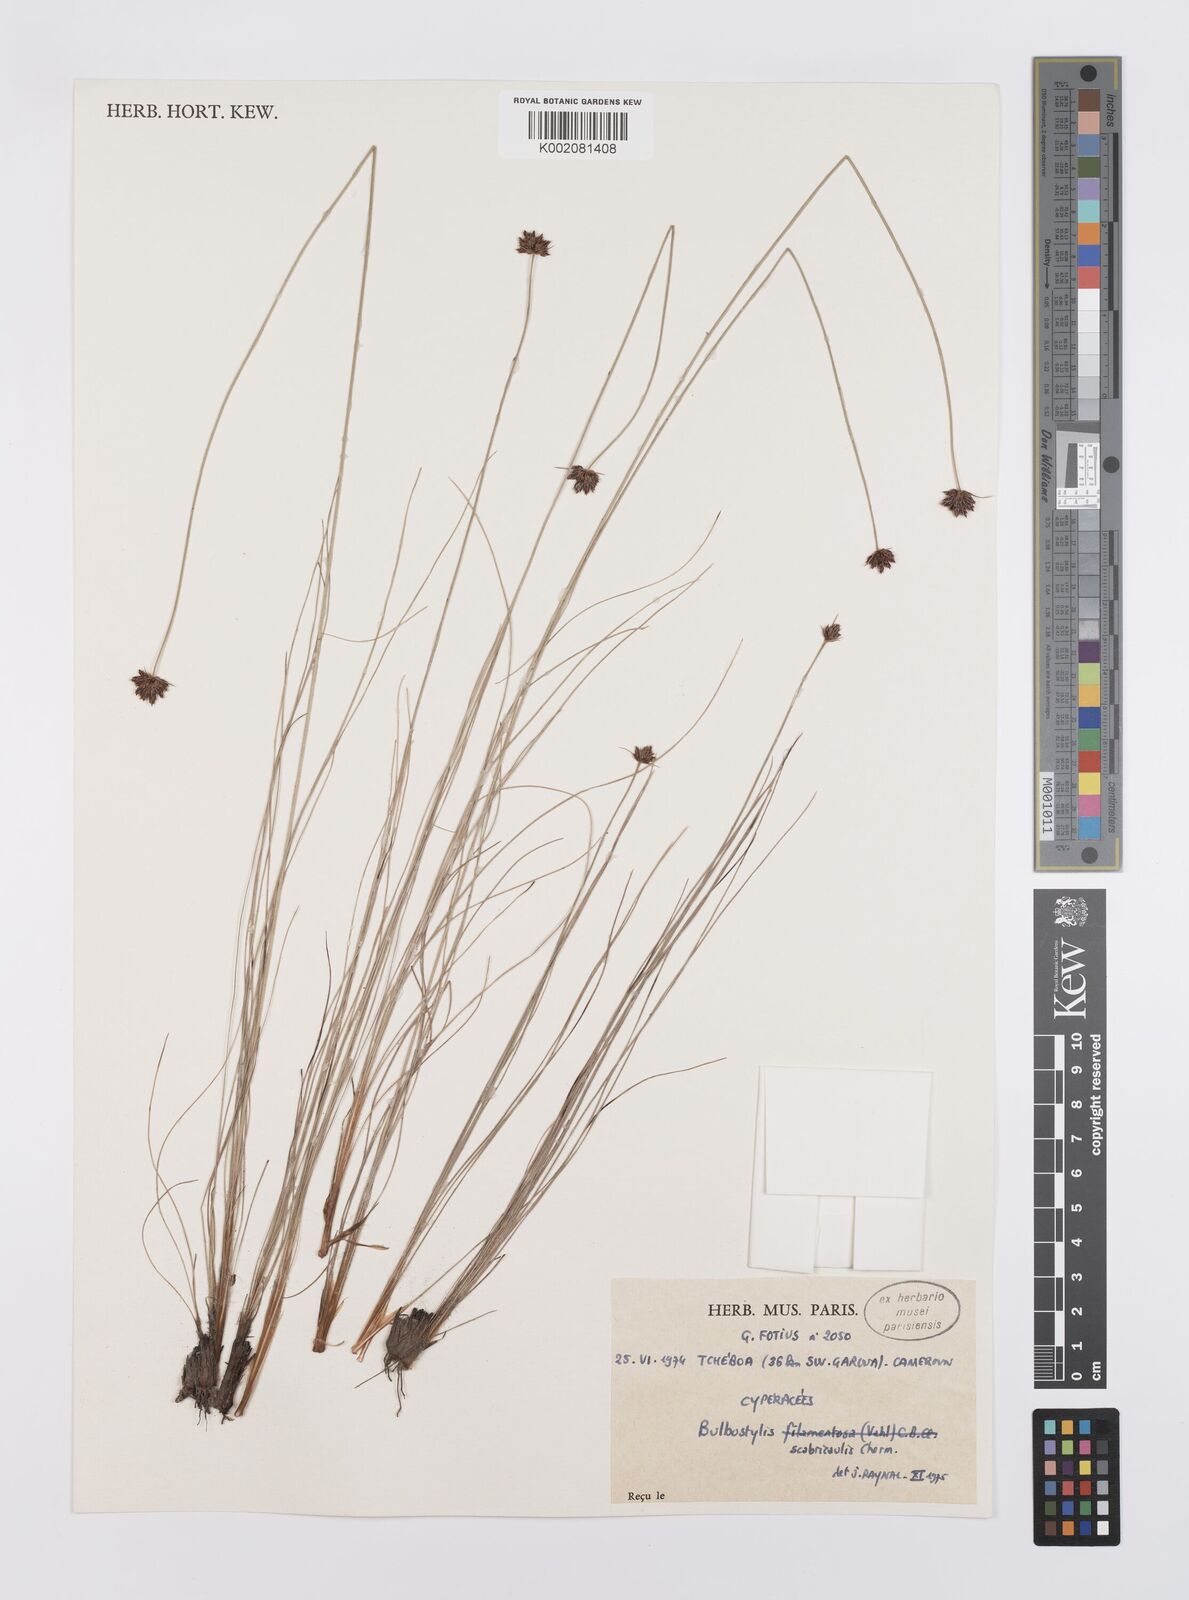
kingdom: Plantae
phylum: Tracheophyta
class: Liliopsida
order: Poales
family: Cyperaceae
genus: Bulbostylis
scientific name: Bulbostylis filamentosa
